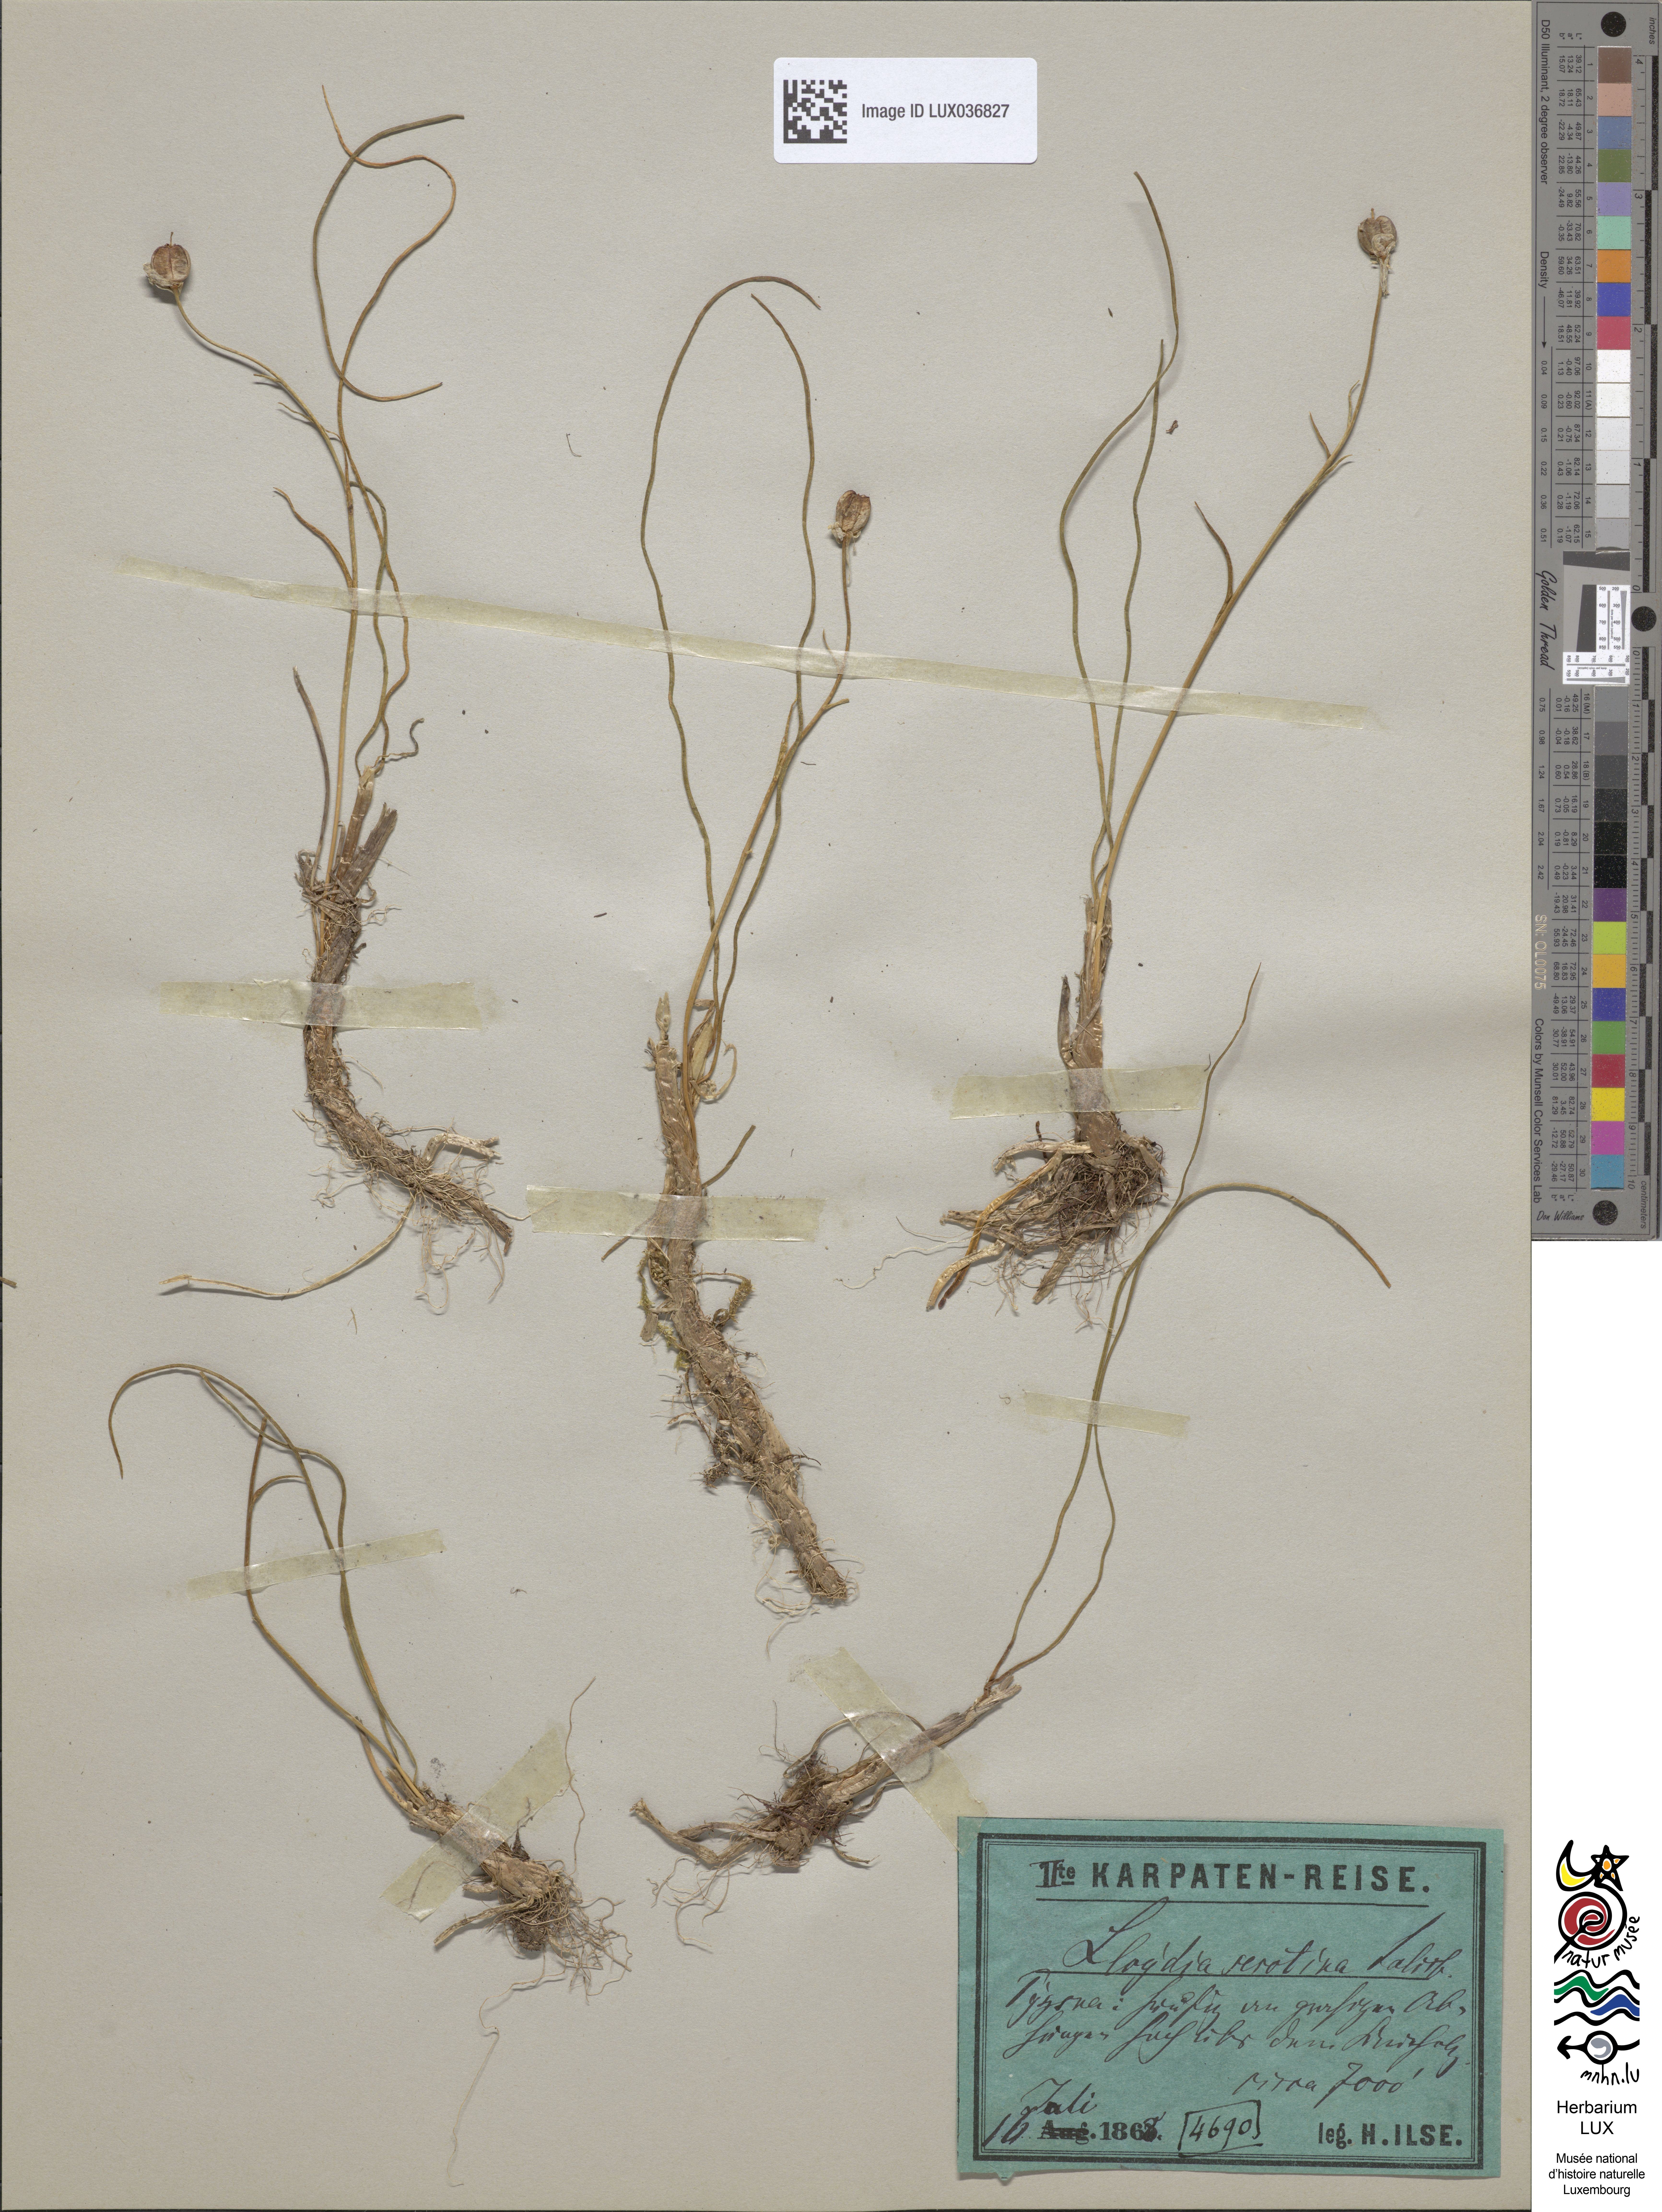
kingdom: Plantae
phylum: Tracheophyta
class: Liliopsida
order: Liliales
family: Liliaceae
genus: Gagea
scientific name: Gagea serotina
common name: Snowdon lily
